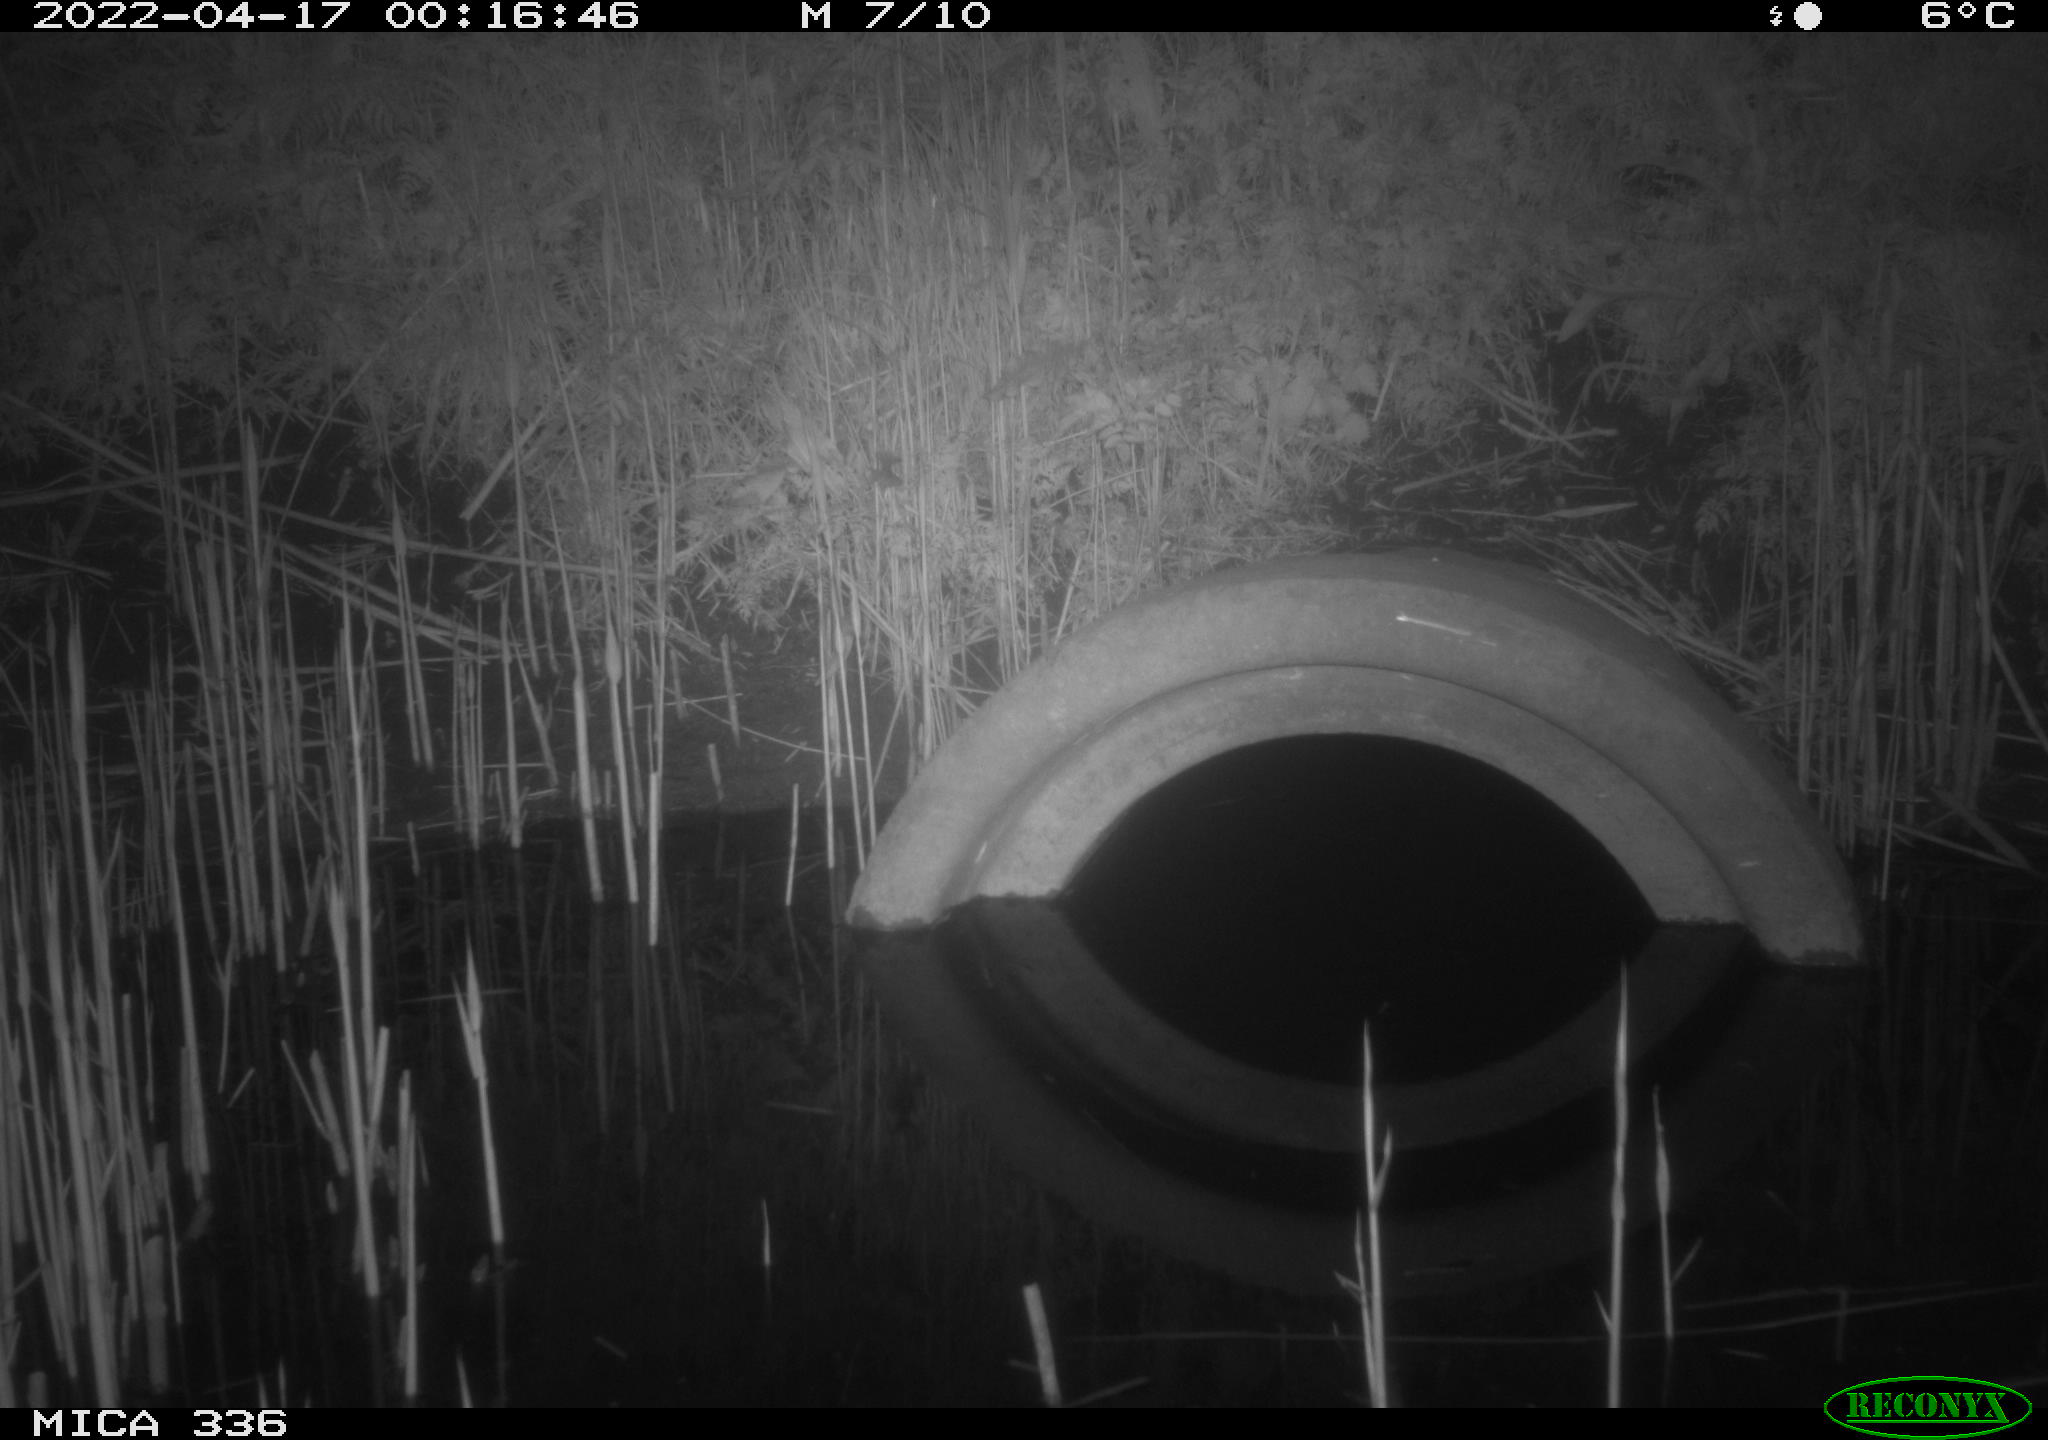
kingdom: Animalia
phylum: Chordata
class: Mammalia
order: Rodentia
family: Muridae
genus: Rattus
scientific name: Rattus norvegicus
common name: Brown rat
